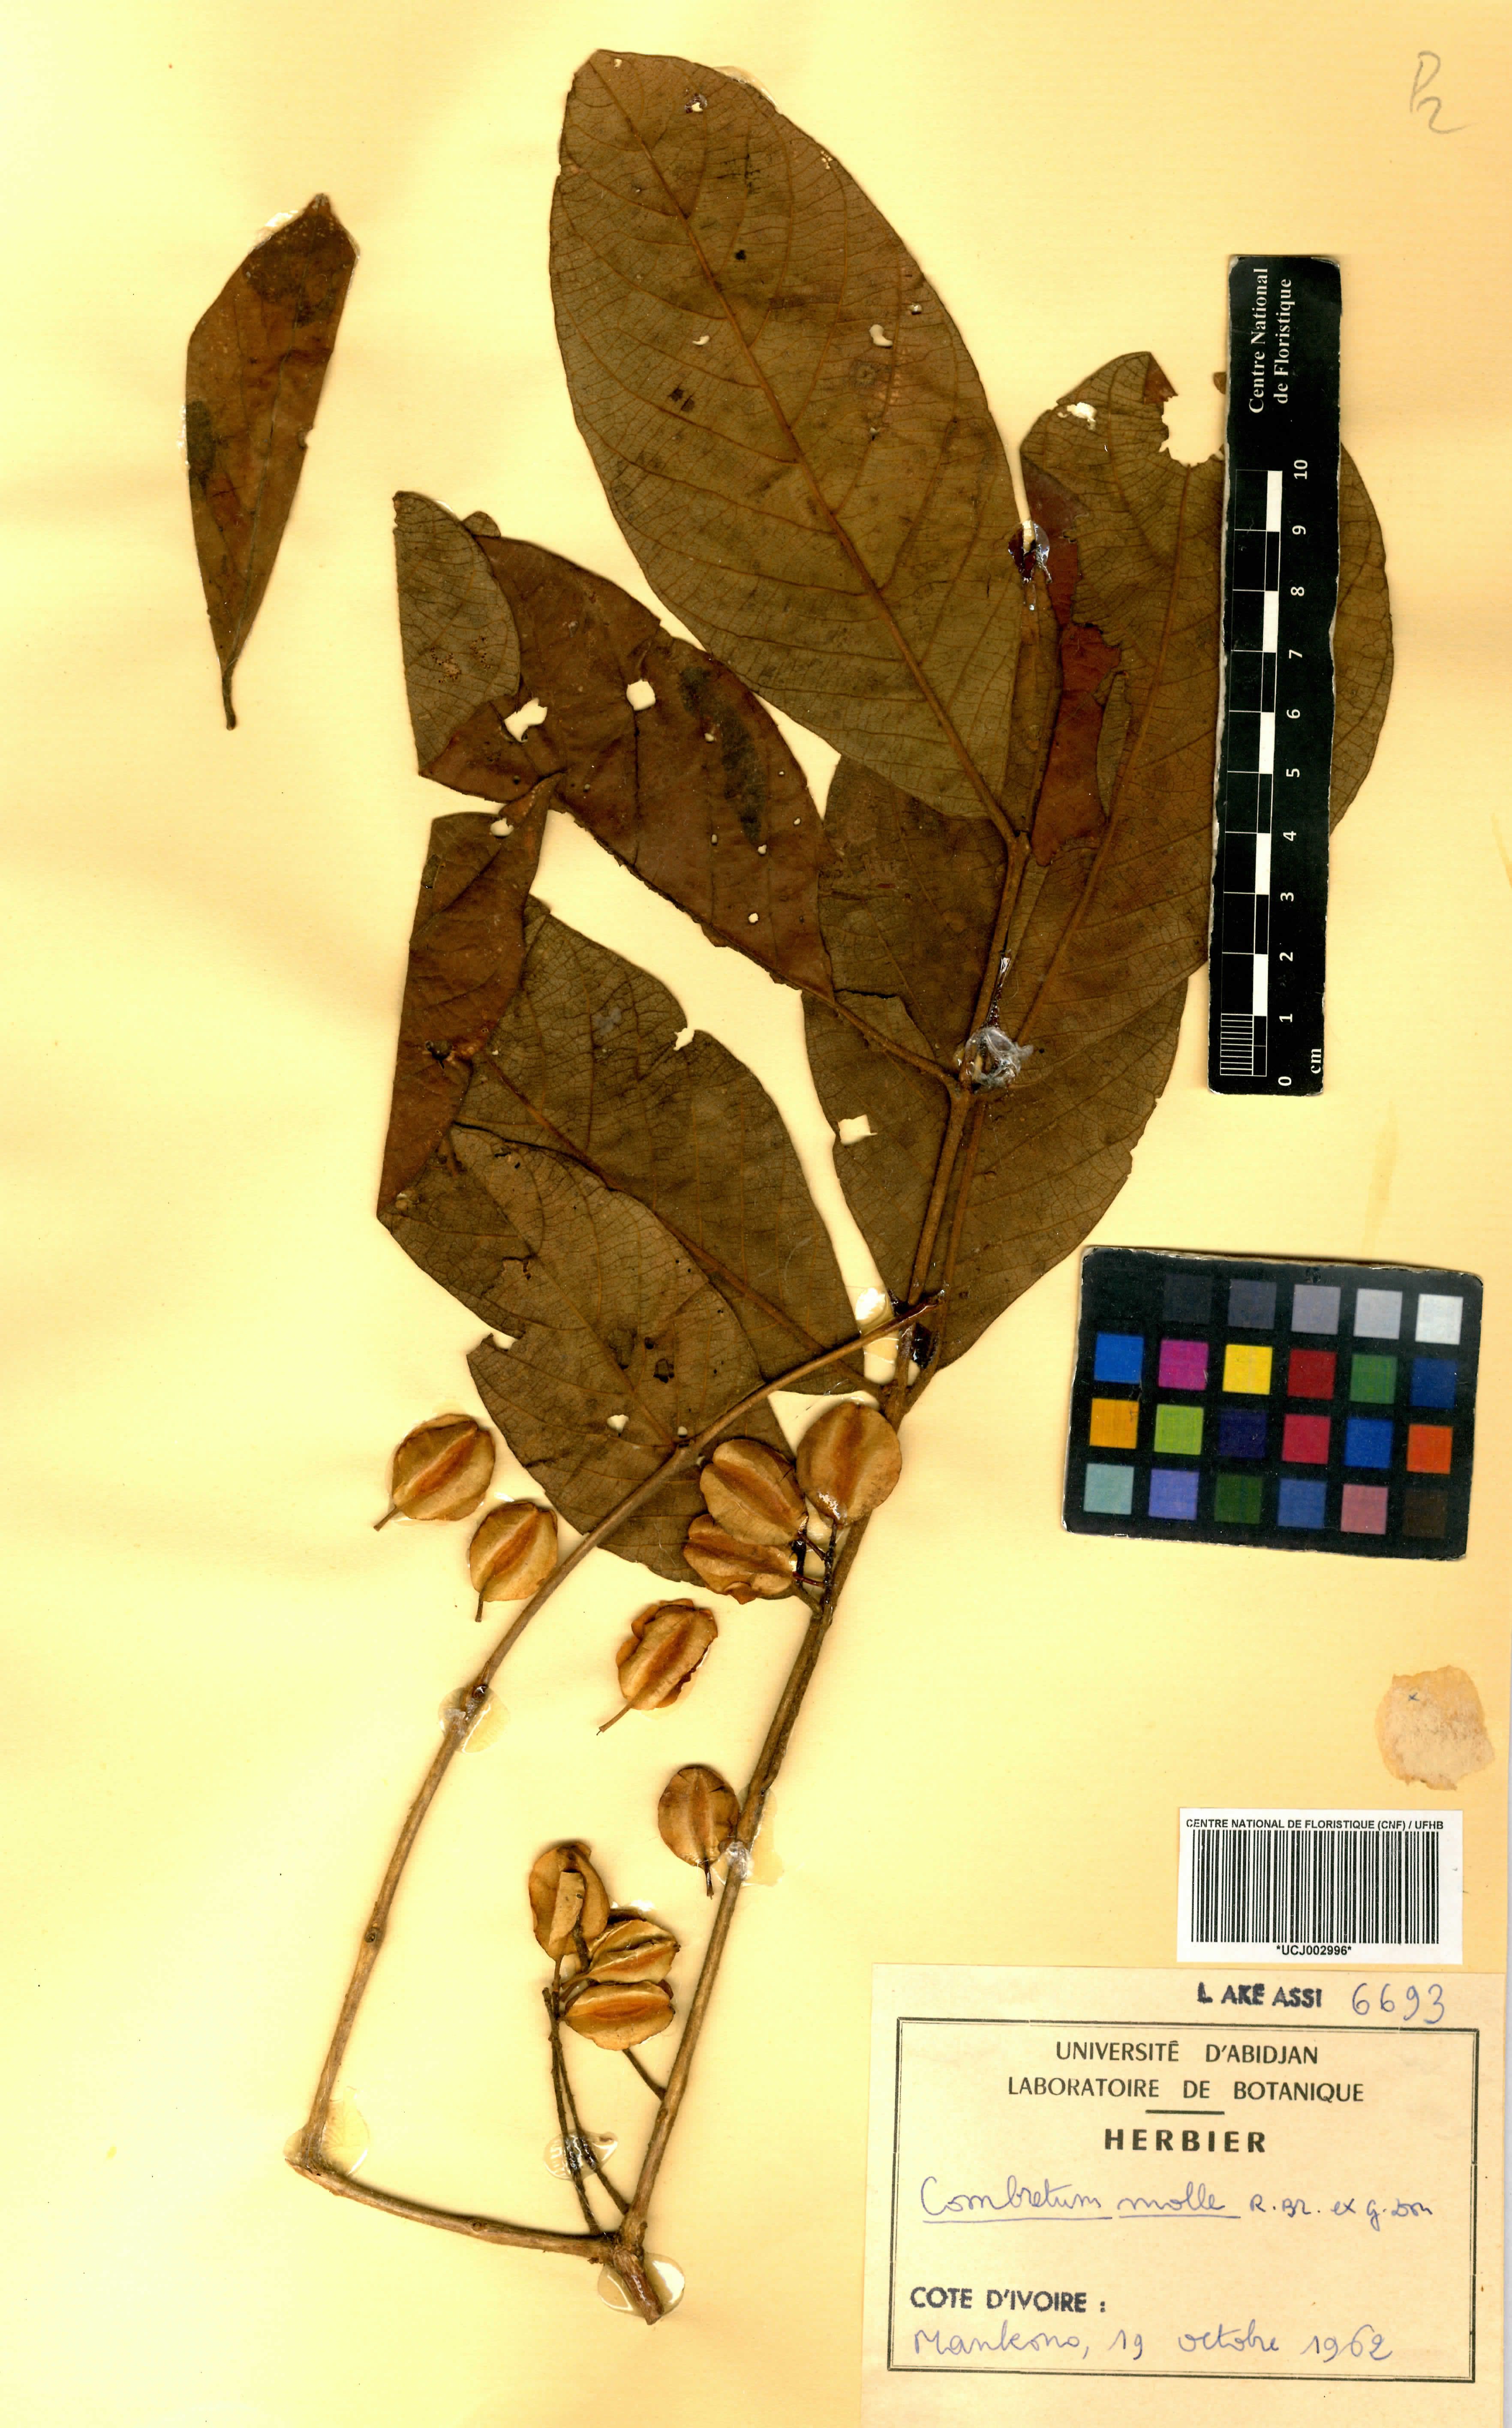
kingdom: Plantae
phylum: Tracheophyta
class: Magnoliopsida
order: Myrtales
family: Combretaceae
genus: Combretum
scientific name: Combretum molle
